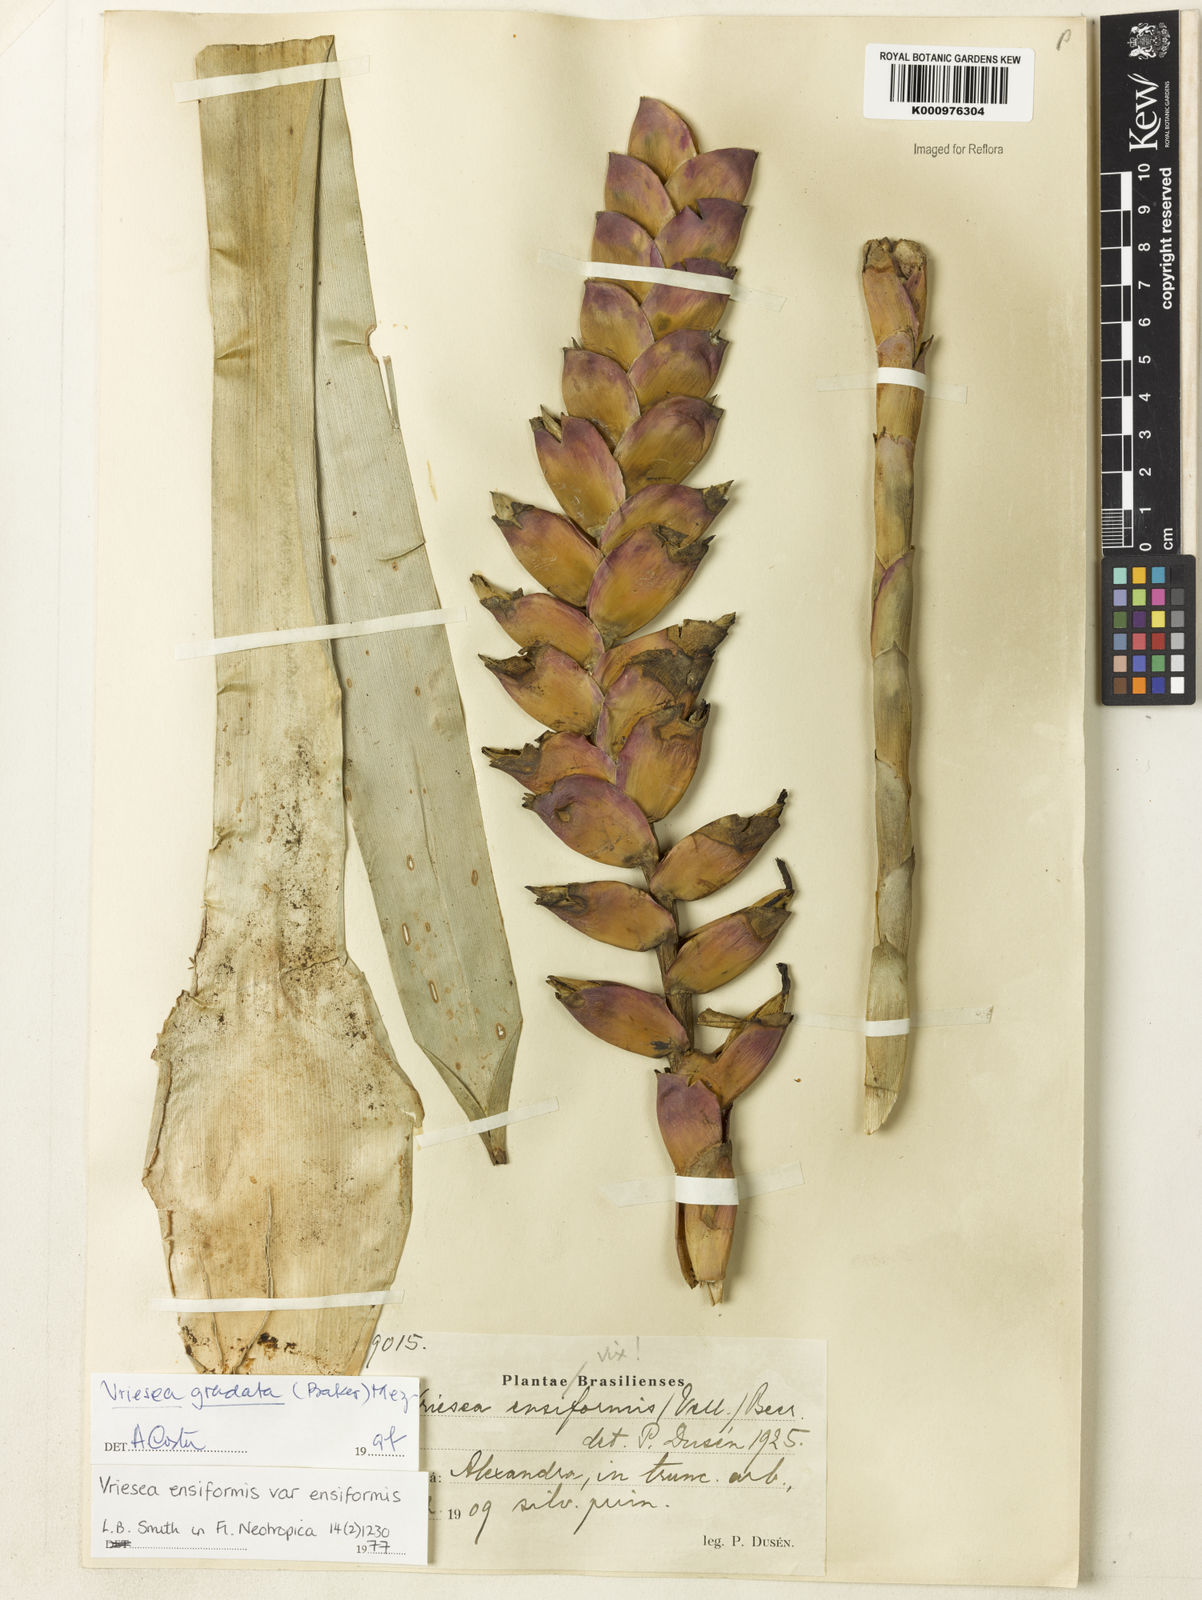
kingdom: Plantae
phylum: Tracheophyta
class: Liliopsida
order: Poales
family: Bromeliaceae
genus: Vriesea
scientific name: Vriesea ensiformis
